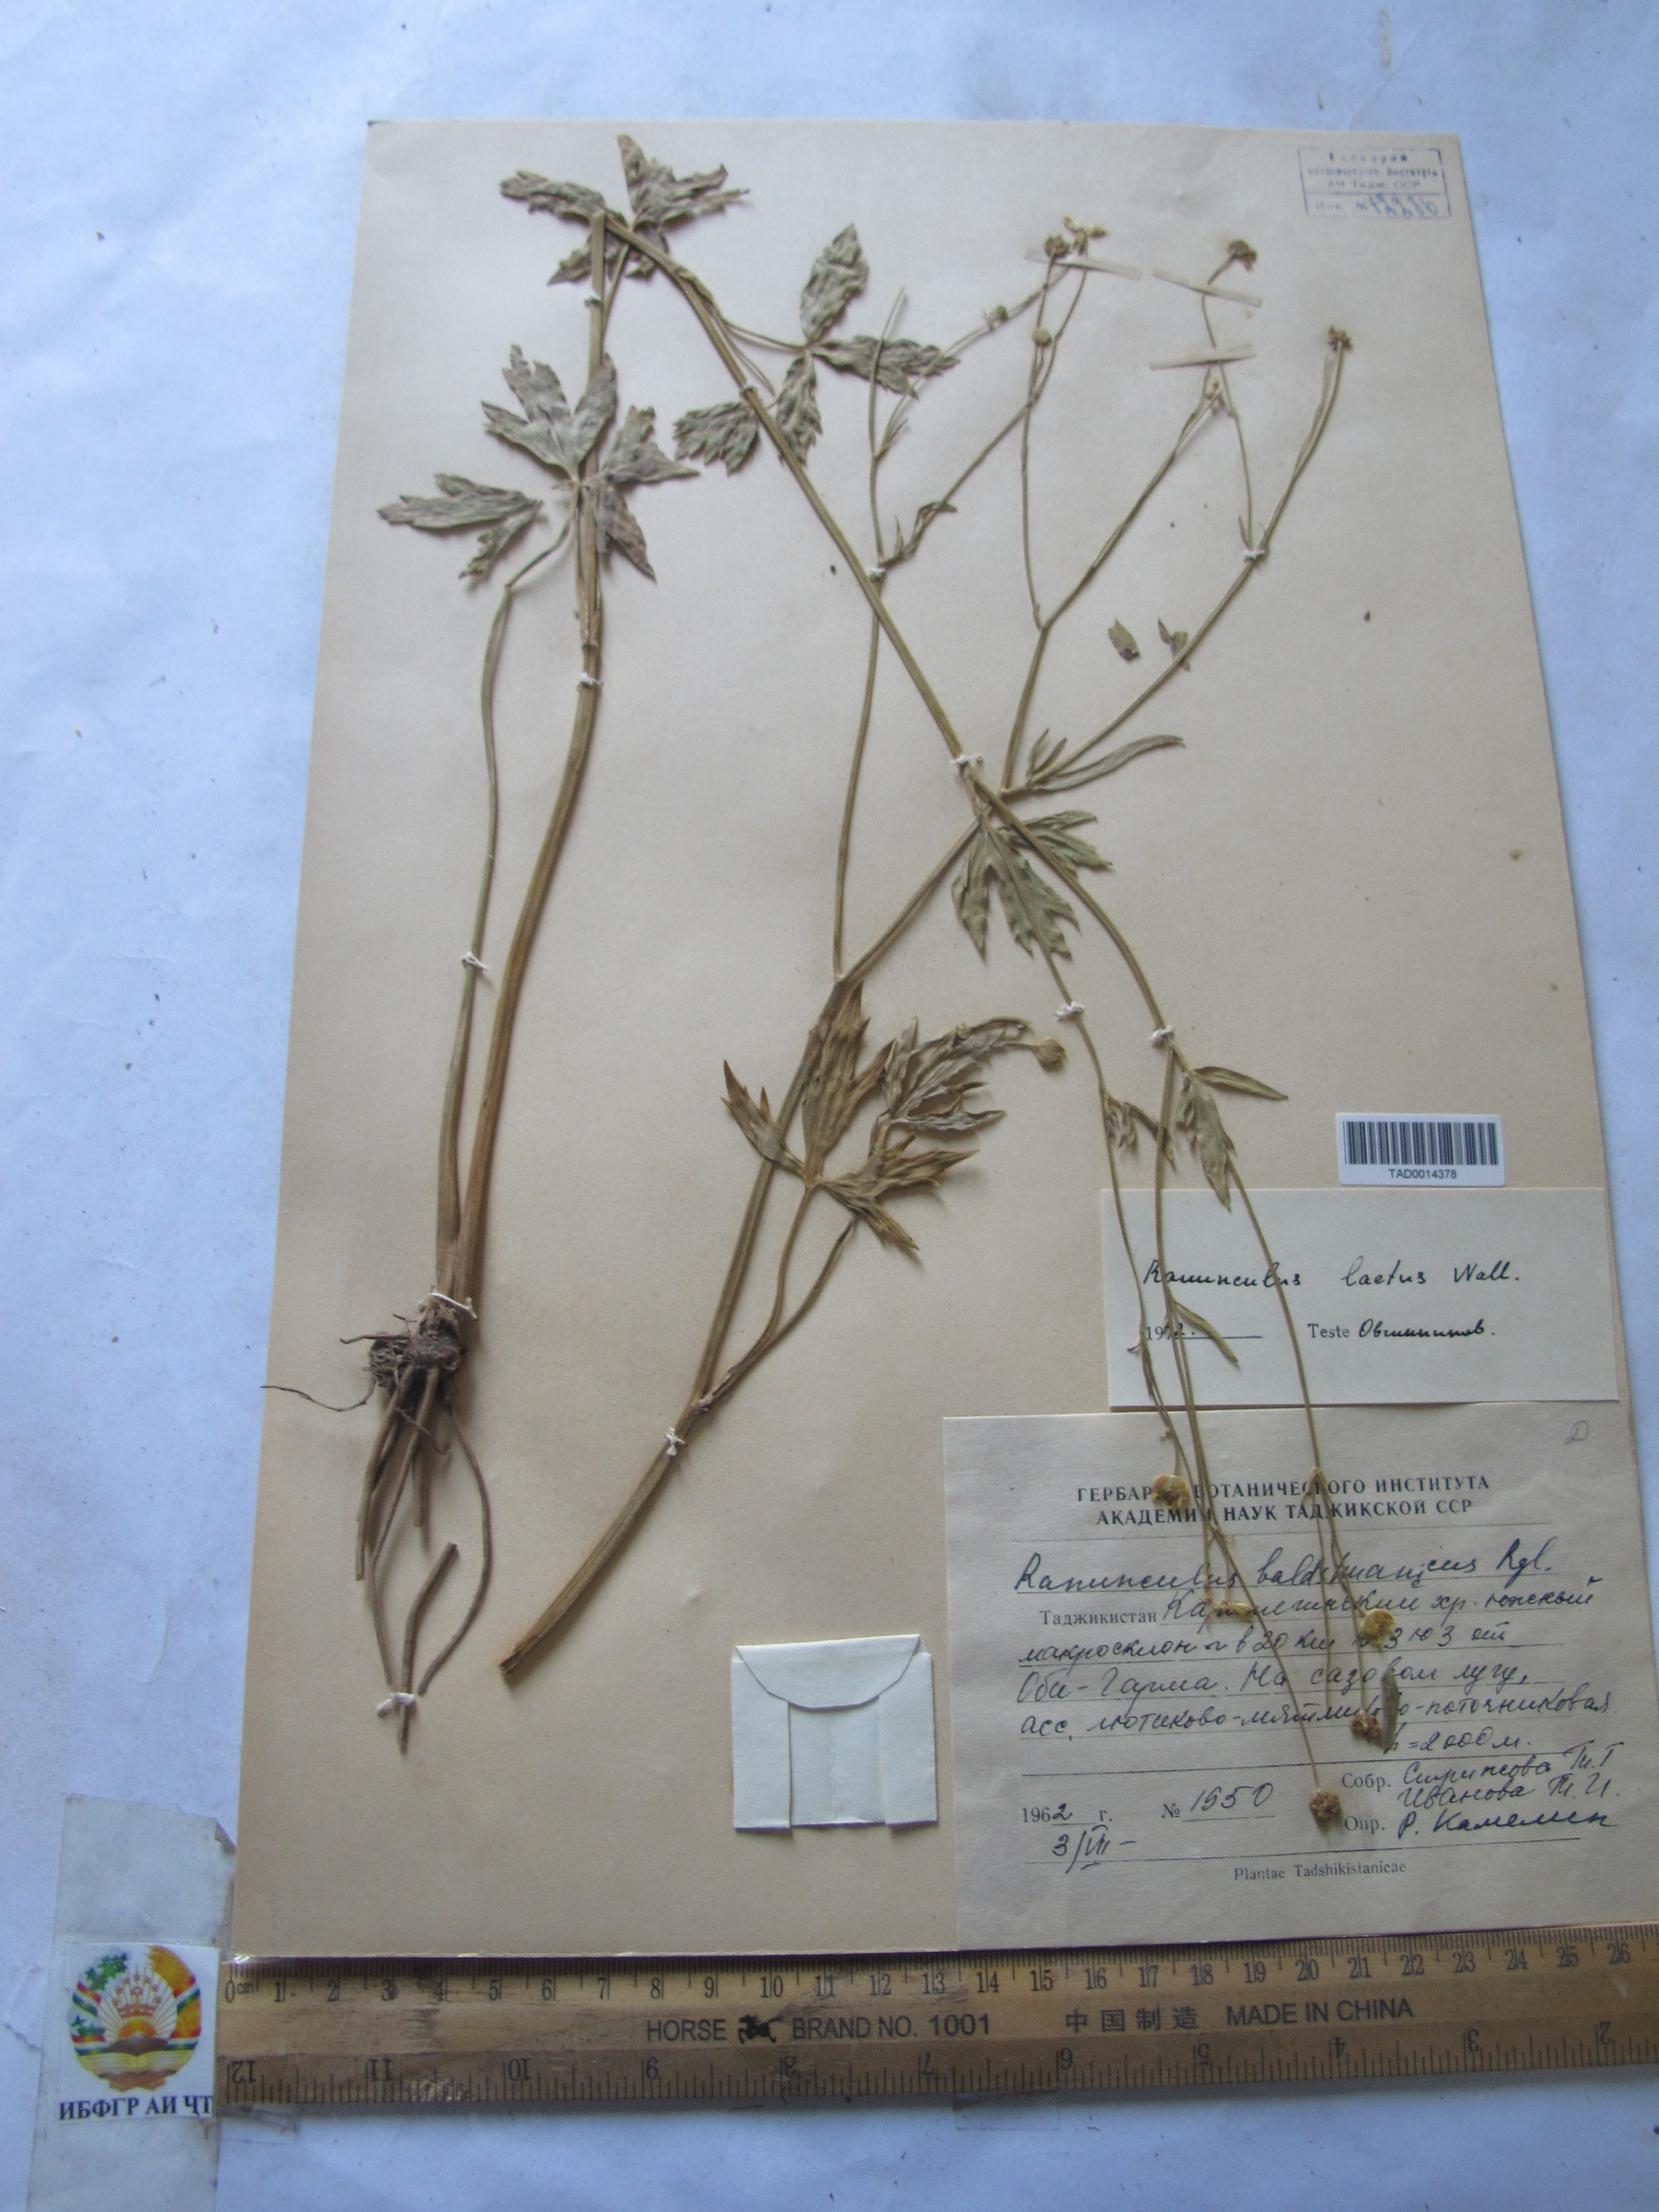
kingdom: Plantae
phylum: Tracheophyta
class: Magnoliopsida
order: Ranunculales
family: Ranunculaceae
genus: Ranunculus
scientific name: Ranunculus distans
